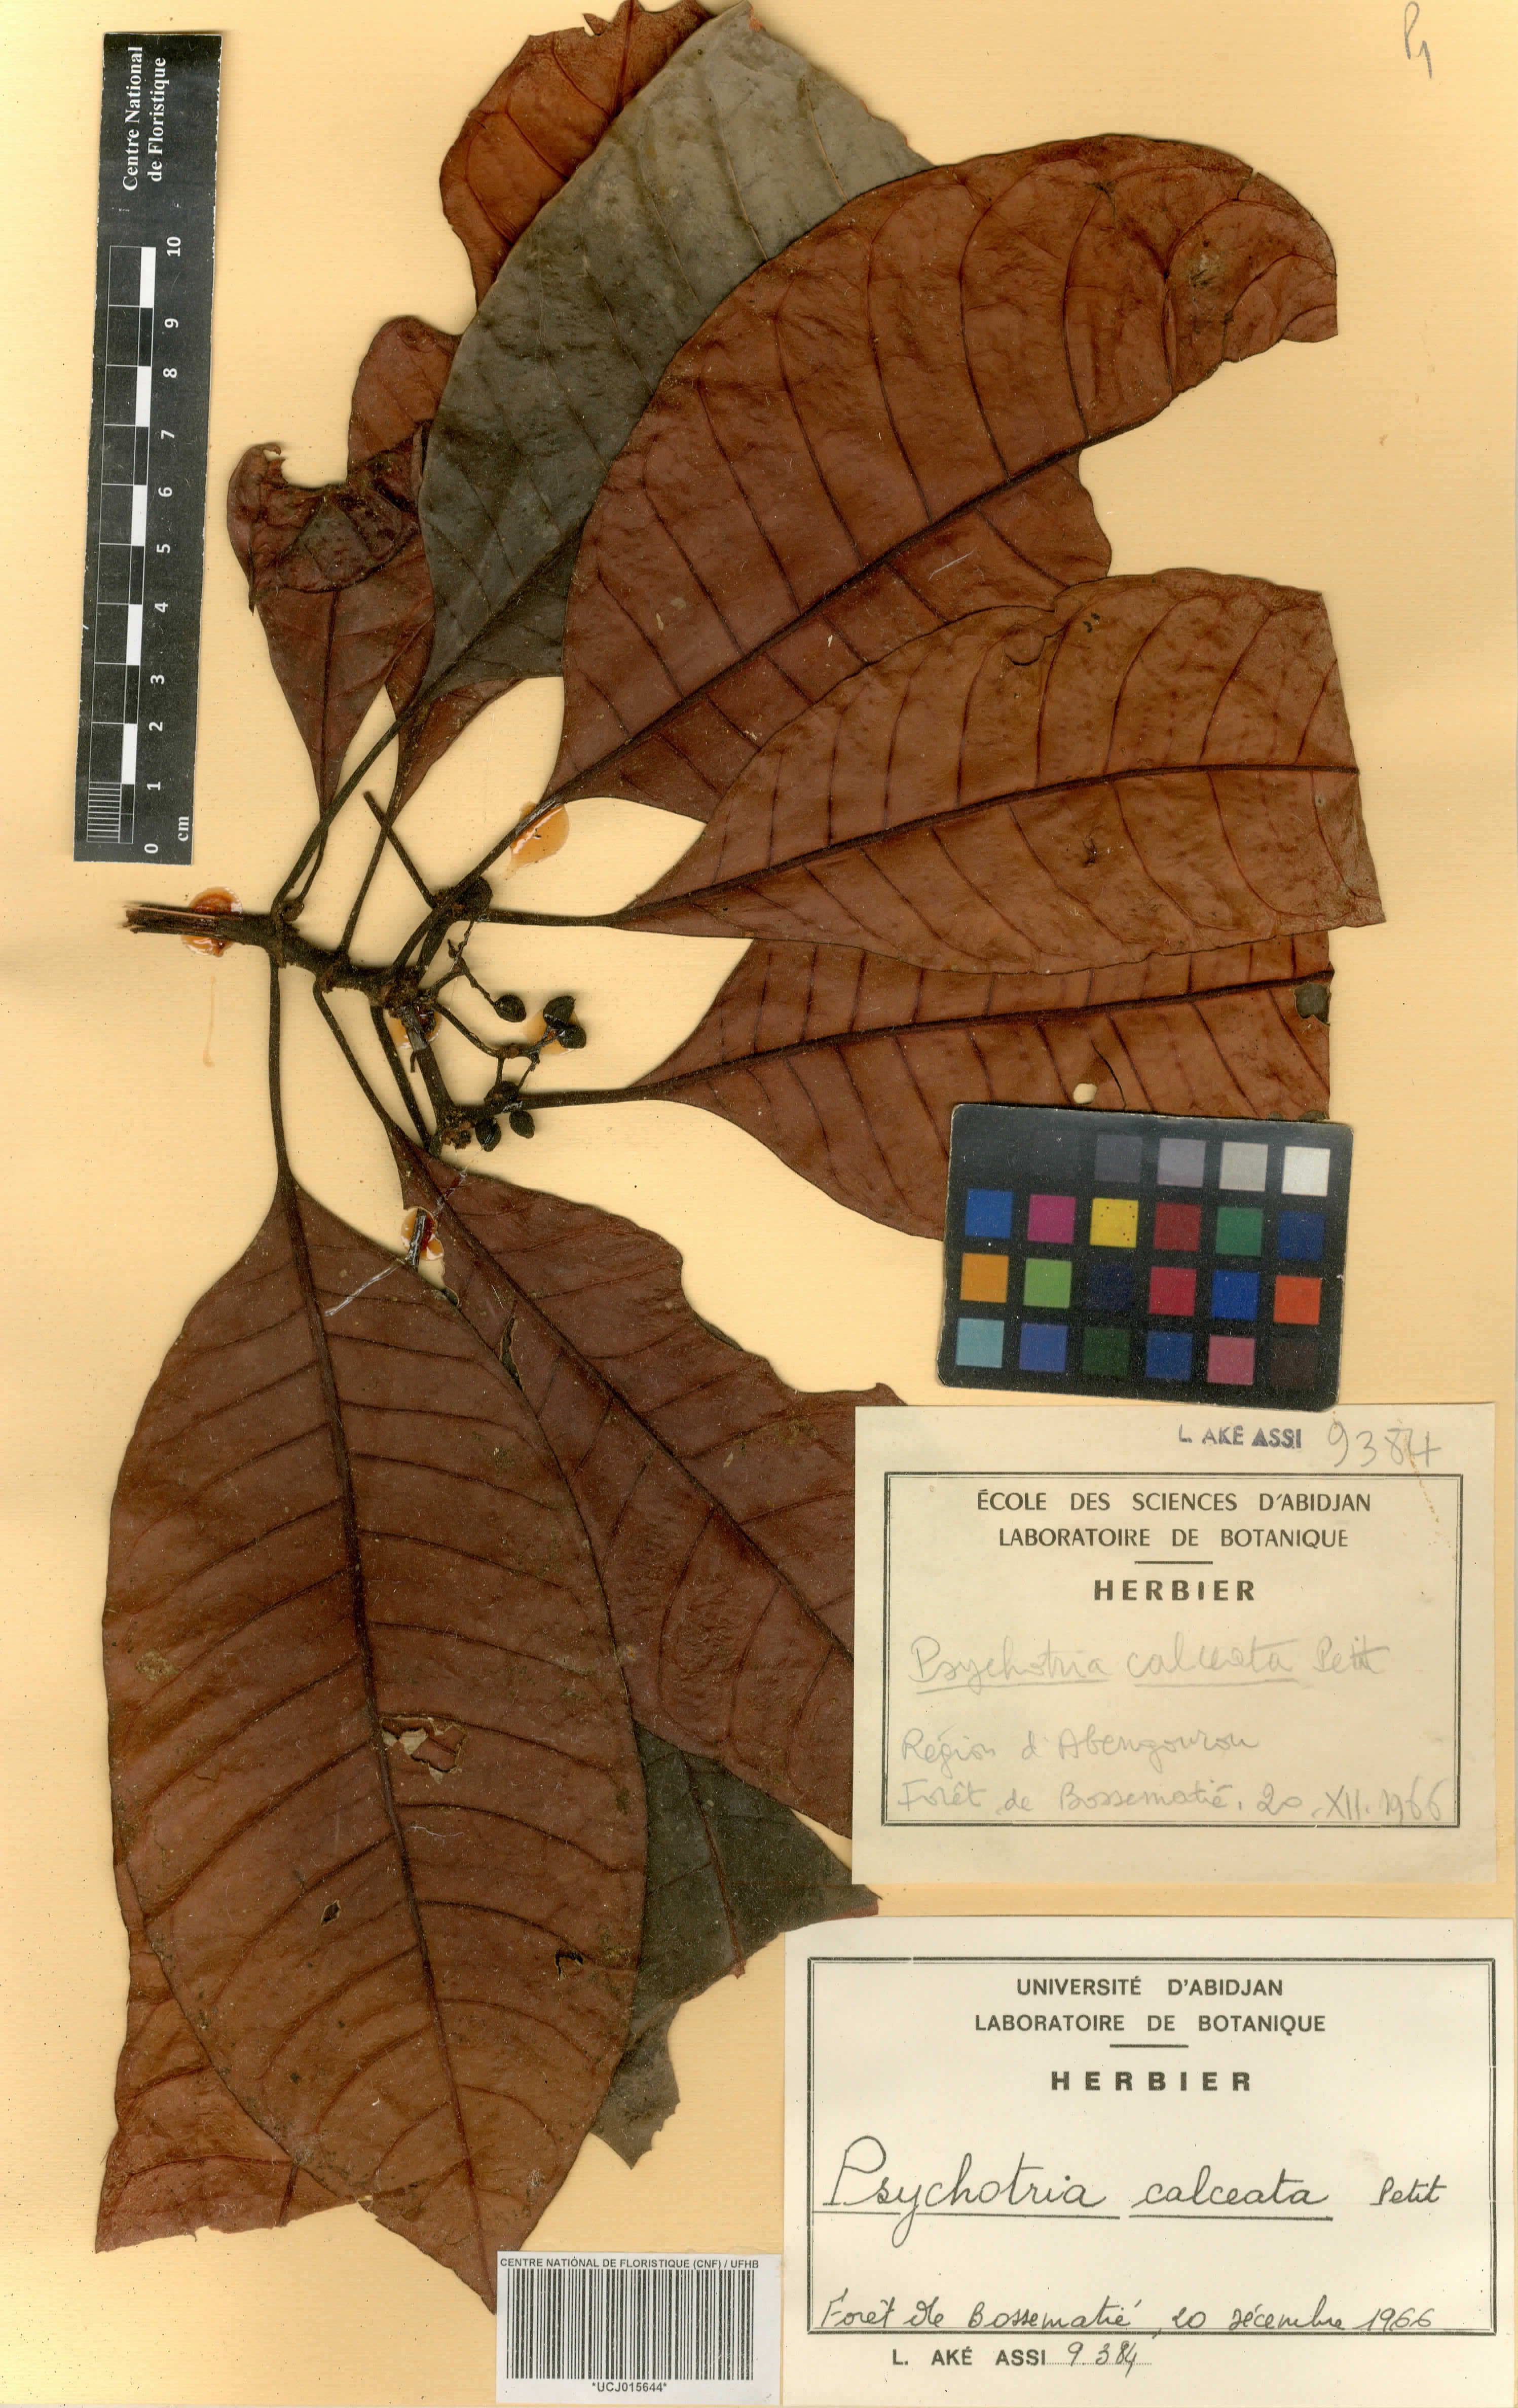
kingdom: Plantae
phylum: Tracheophyta
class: Magnoliopsida
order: Gentianales
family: Rubiaceae
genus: Psychotria
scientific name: Psychotria calceata
